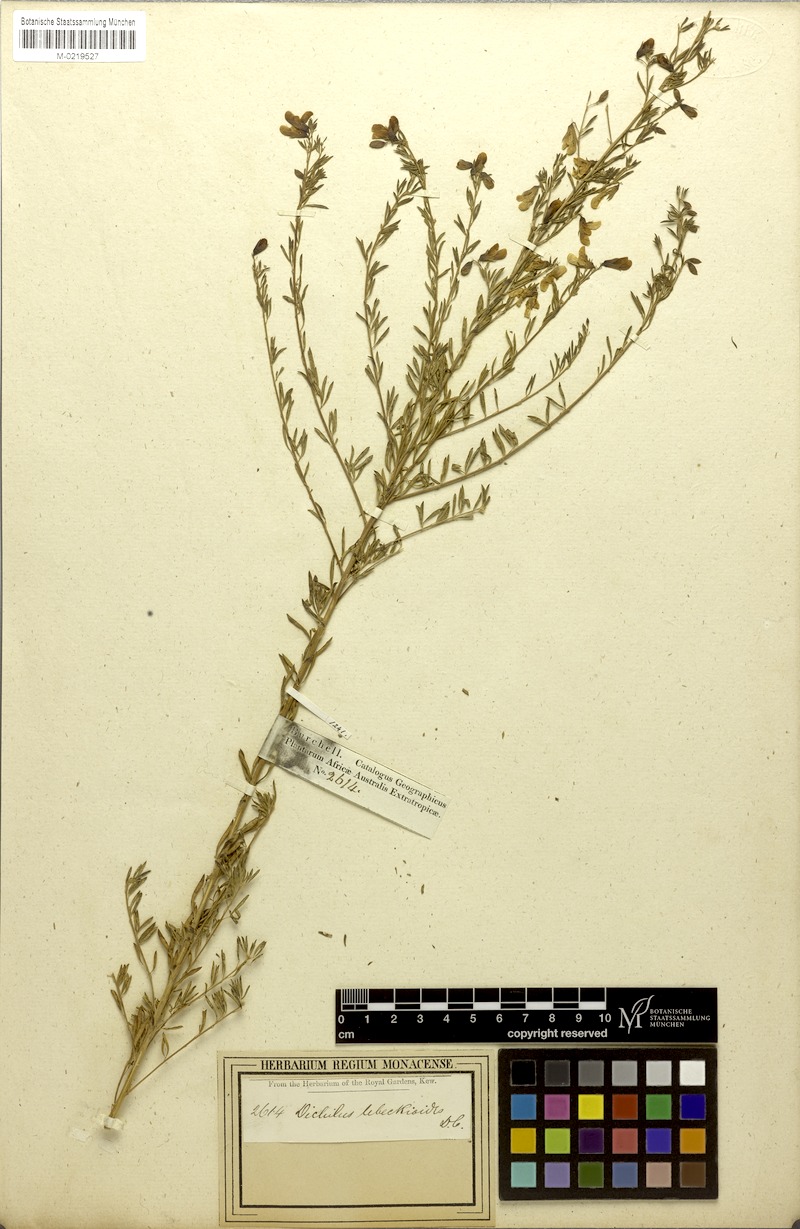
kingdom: Plantae
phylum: Tracheophyta
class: Magnoliopsida
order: Fabales
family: Fabaceae
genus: Dichilus
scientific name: Dichilus lebeckioides
